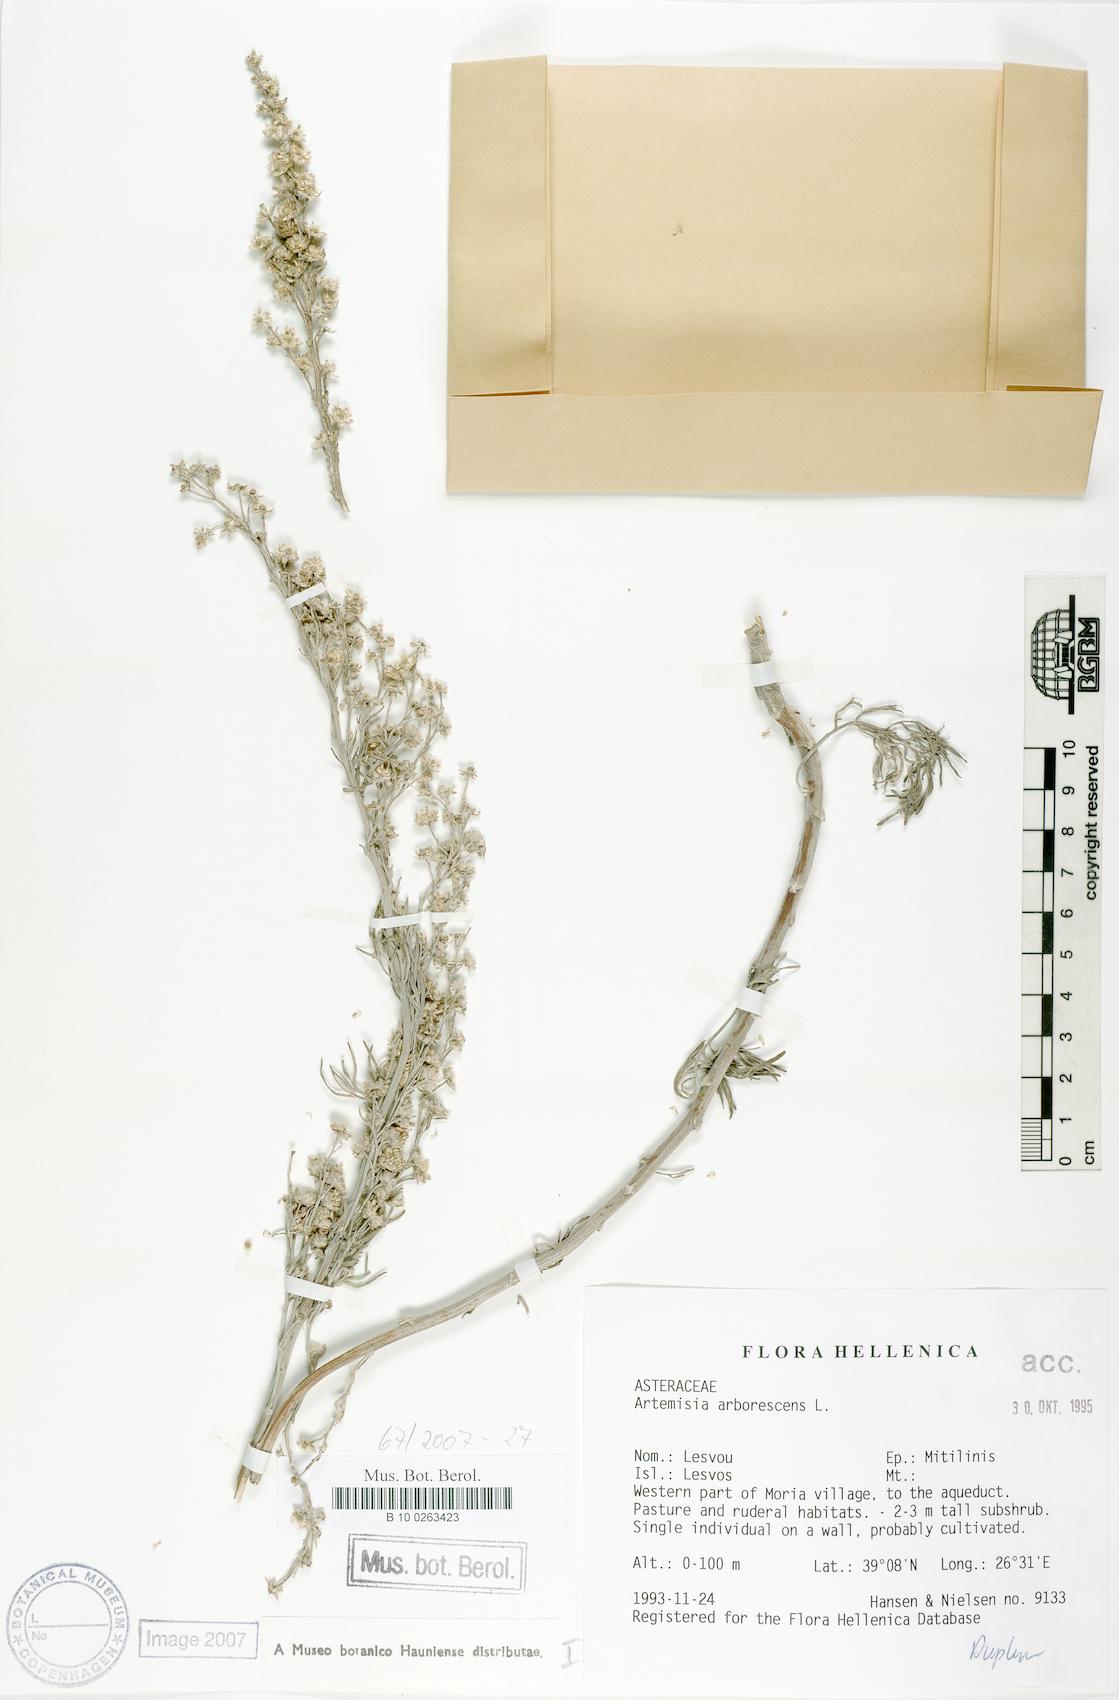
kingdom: Plantae
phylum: Tracheophyta
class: Magnoliopsida
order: Asterales
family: Asteraceae
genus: Artemisia
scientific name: Artemisia arborescens
